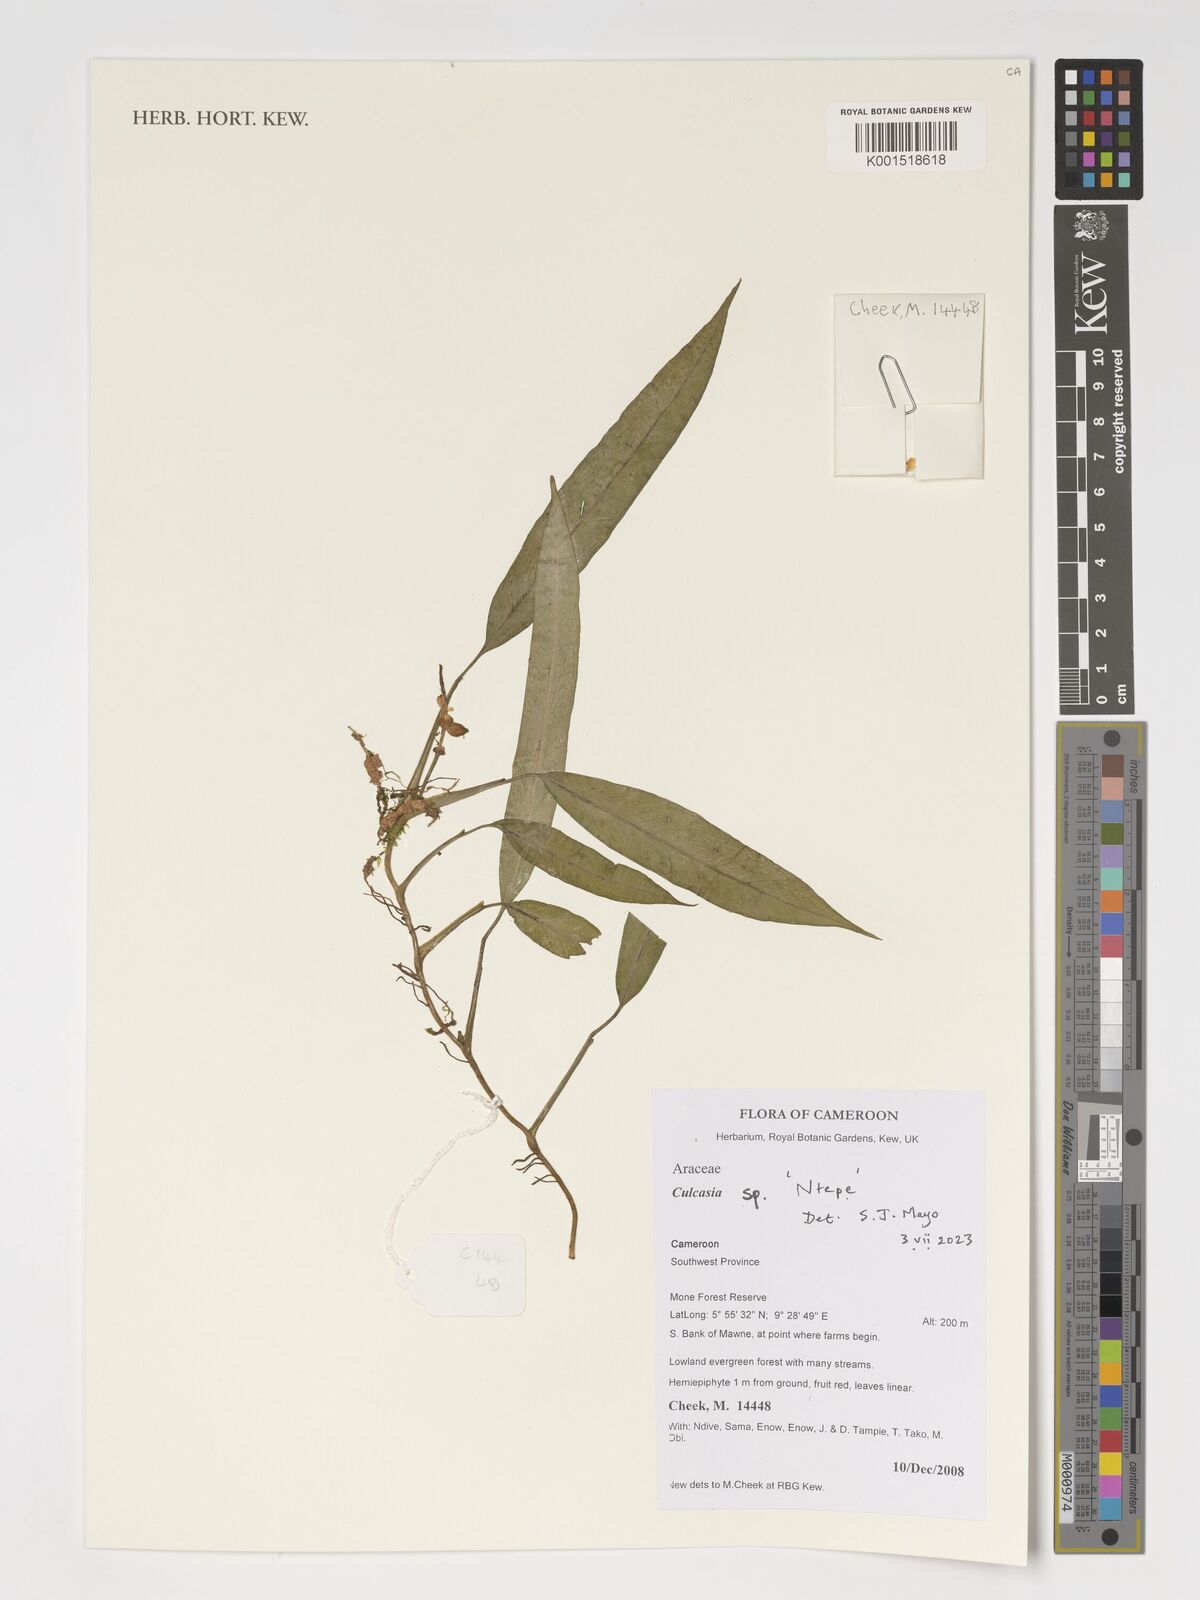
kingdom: Plantae
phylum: Tracheophyta
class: Liliopsida
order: Alismatales
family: Araceae
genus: Culcasia
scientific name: Culcasia
